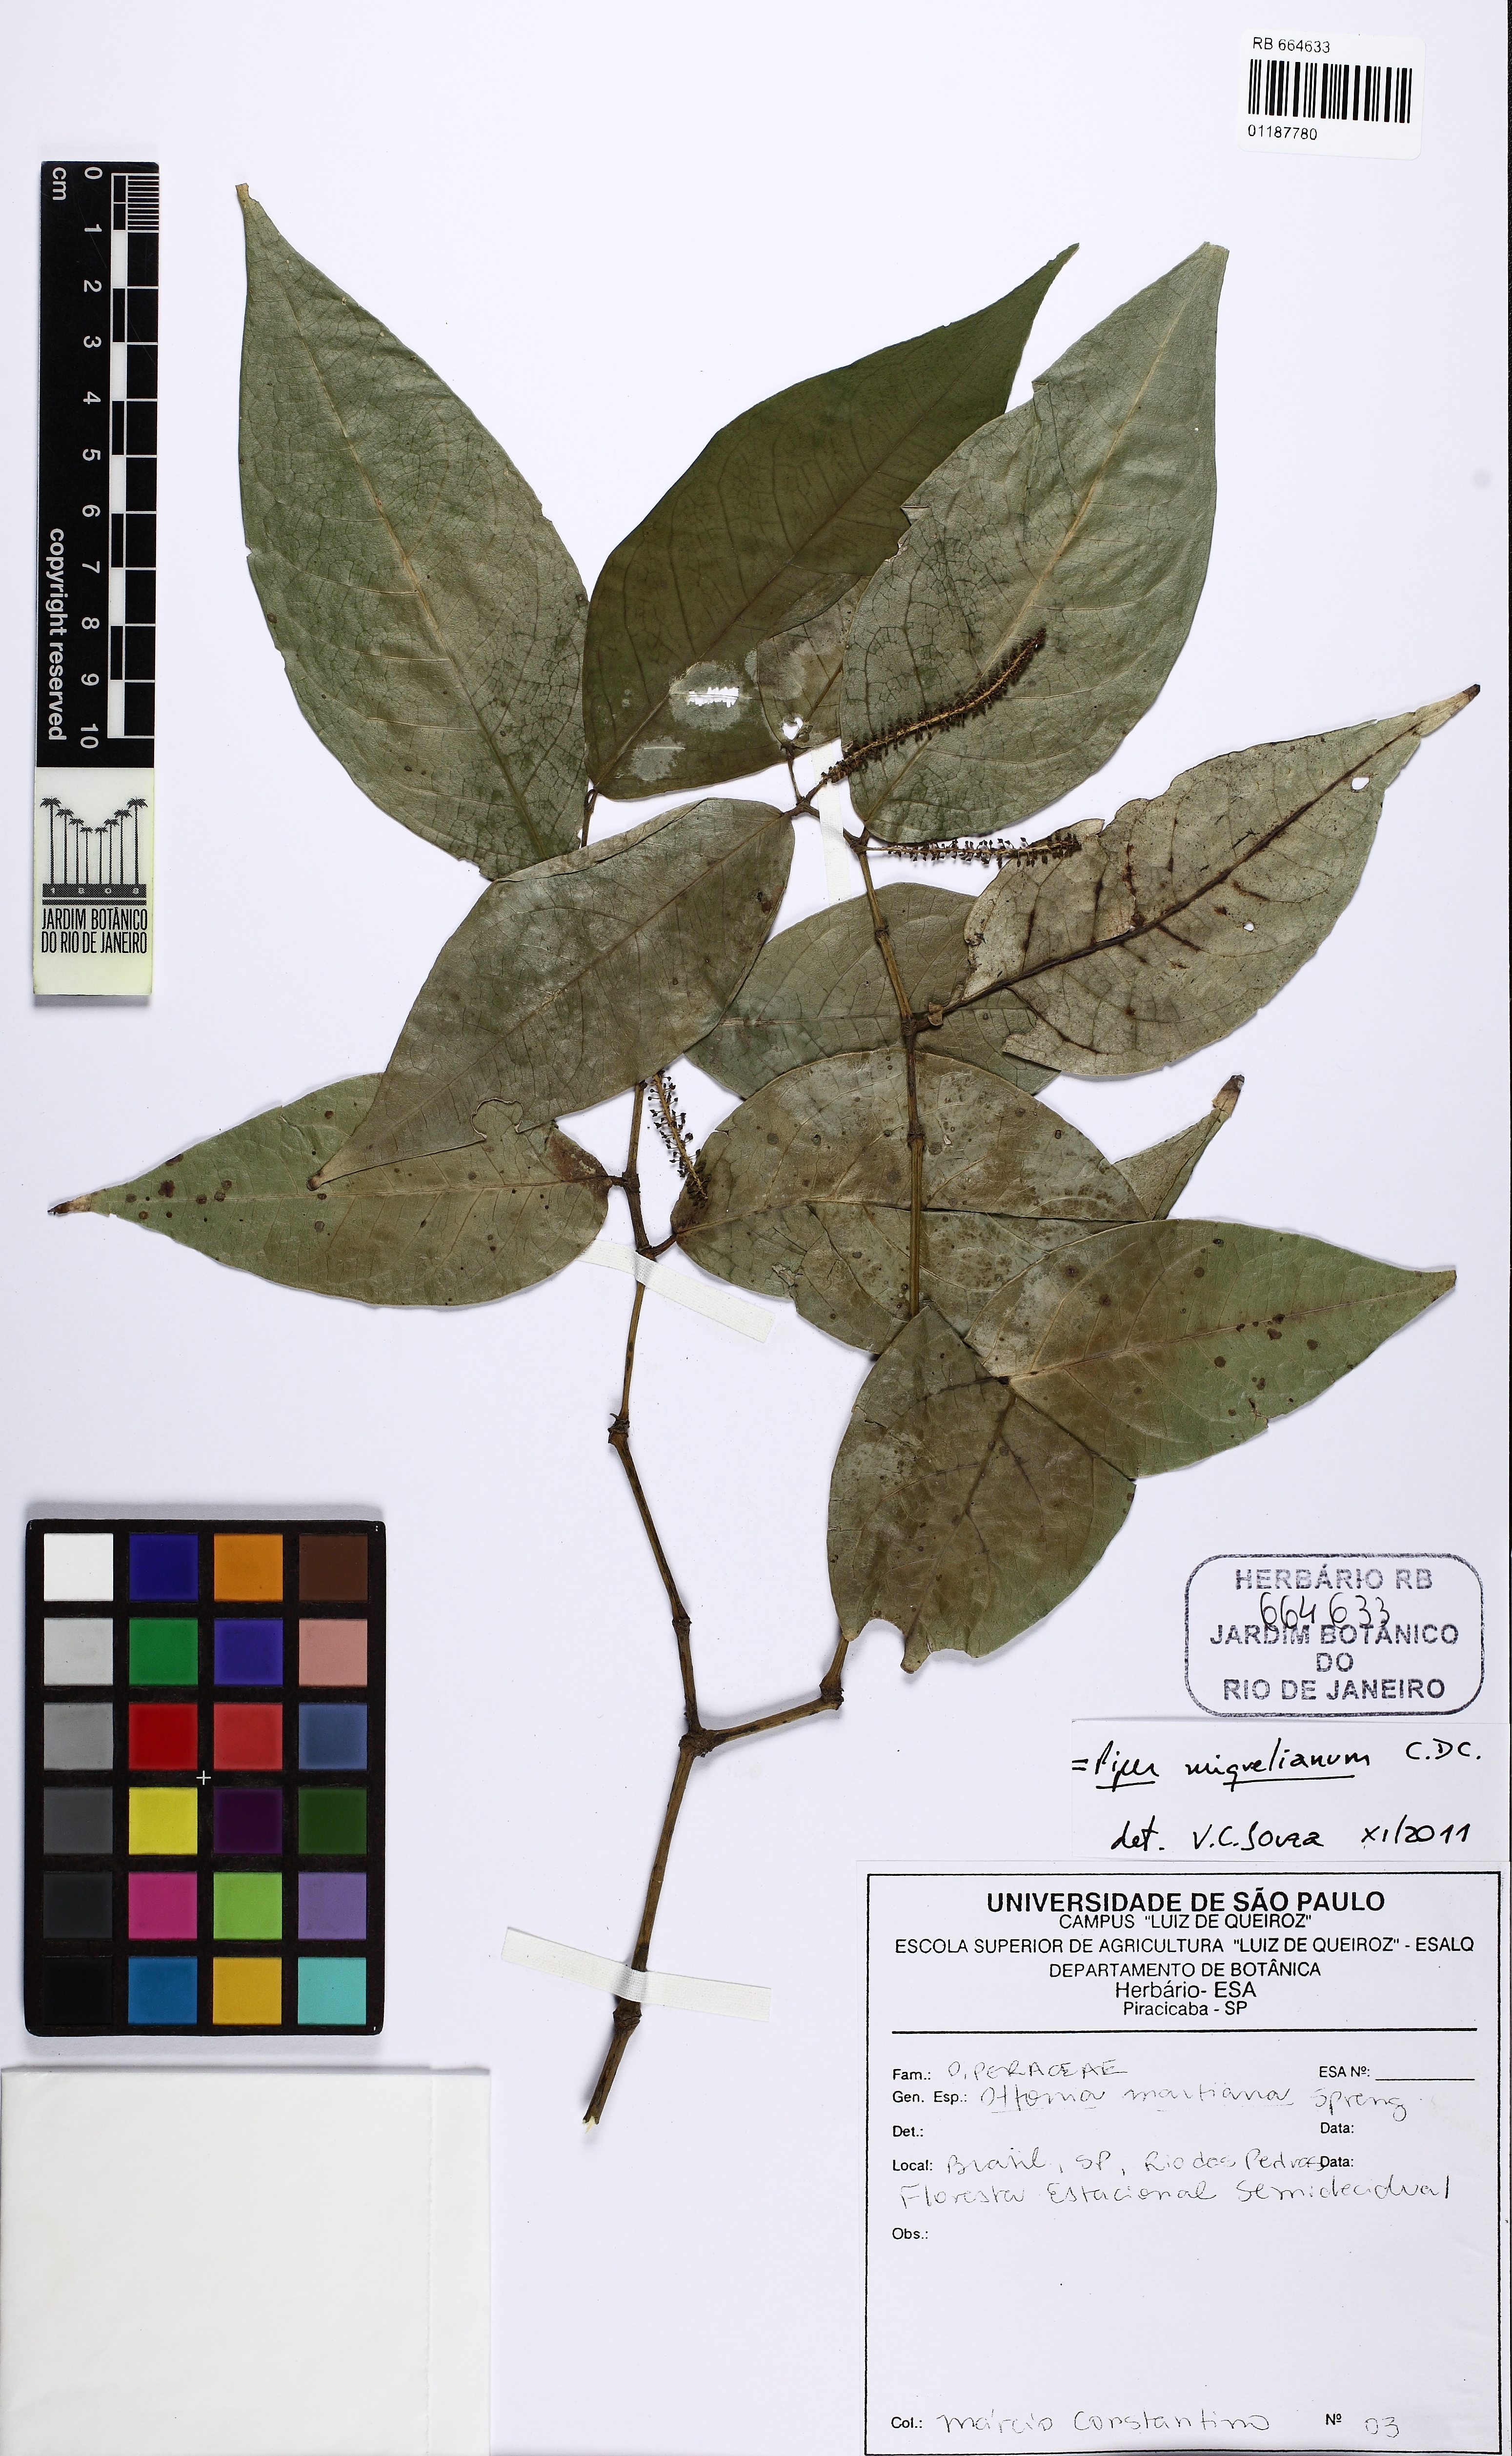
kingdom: Plantae
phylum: Tracheophyta
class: Magnoliopsida
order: Piperales
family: Piperaceae
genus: Piper
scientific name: Piper miquelianum
